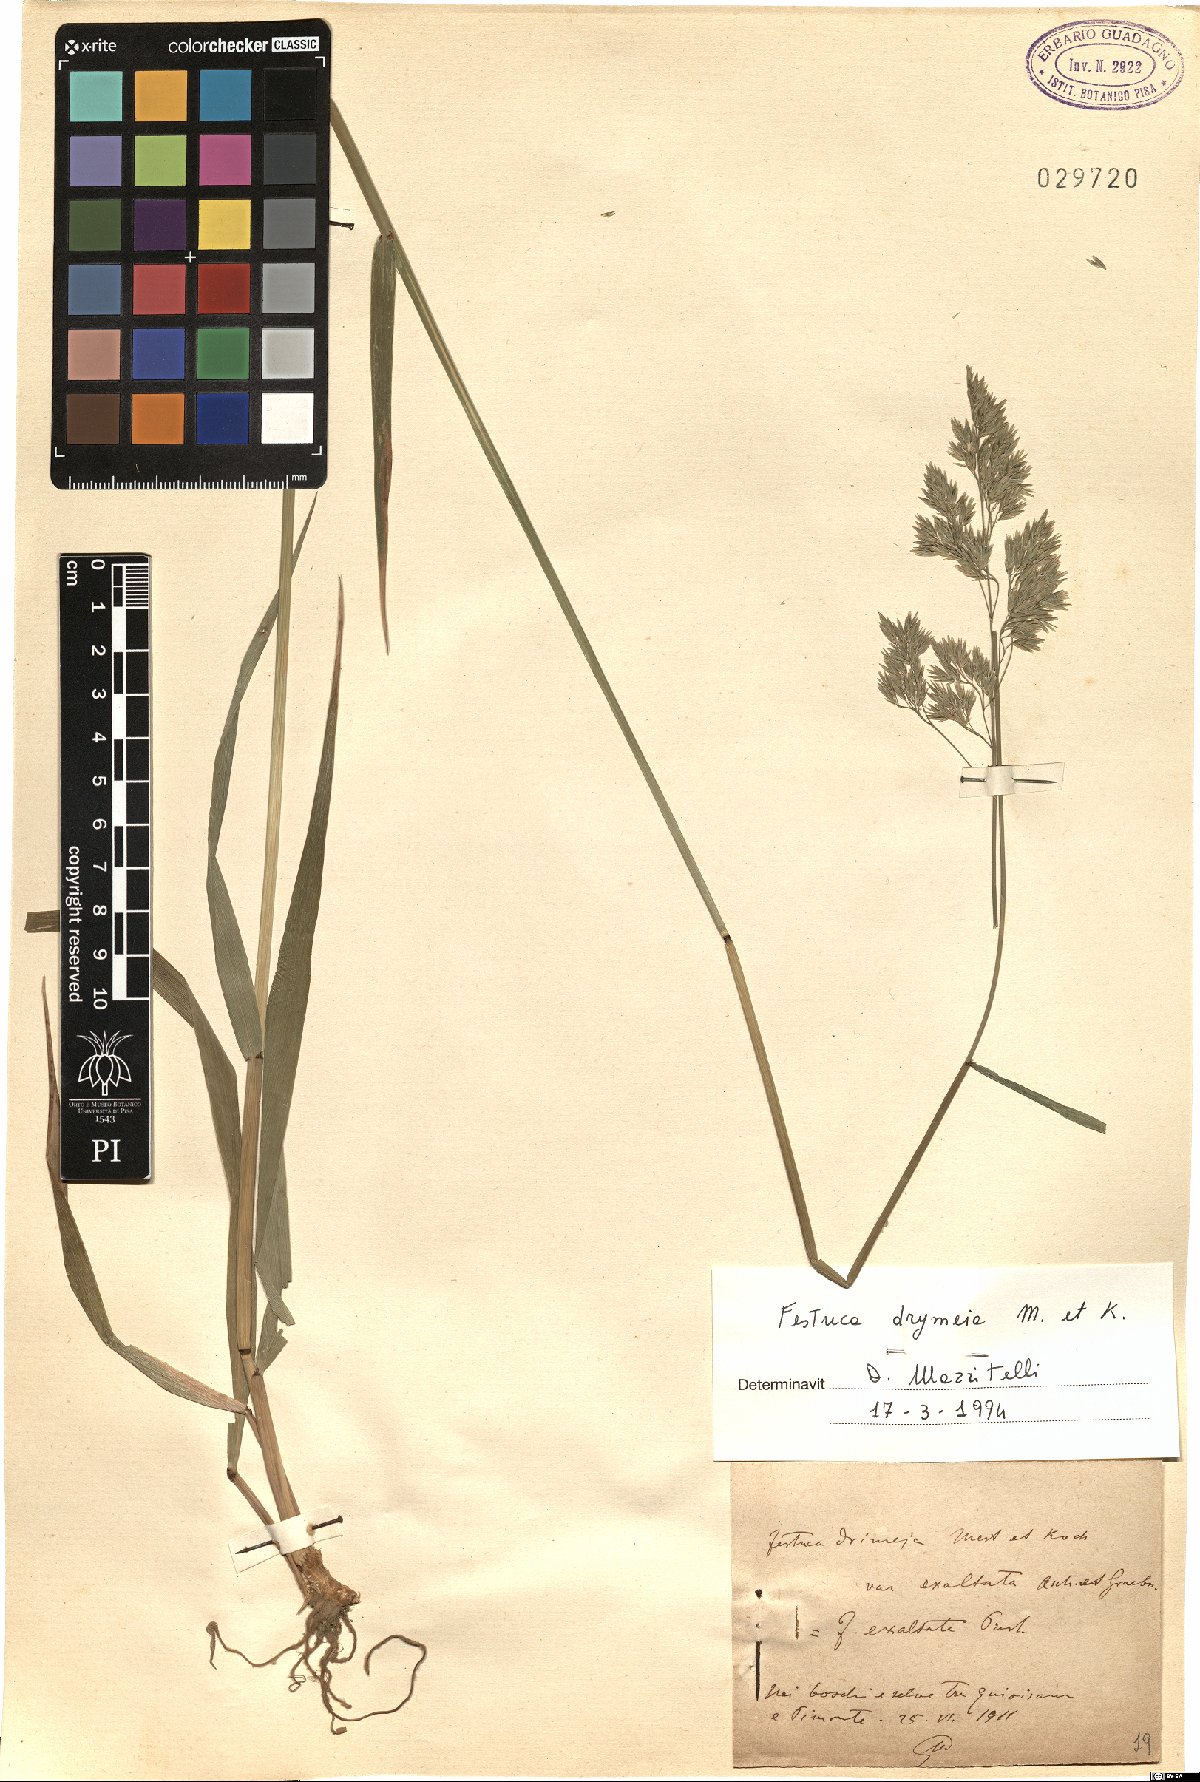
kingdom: Plantae
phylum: Tracheophyta
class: Liliopsida
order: Poales
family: Poaceae
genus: Festuca
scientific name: Festuca drymeja
